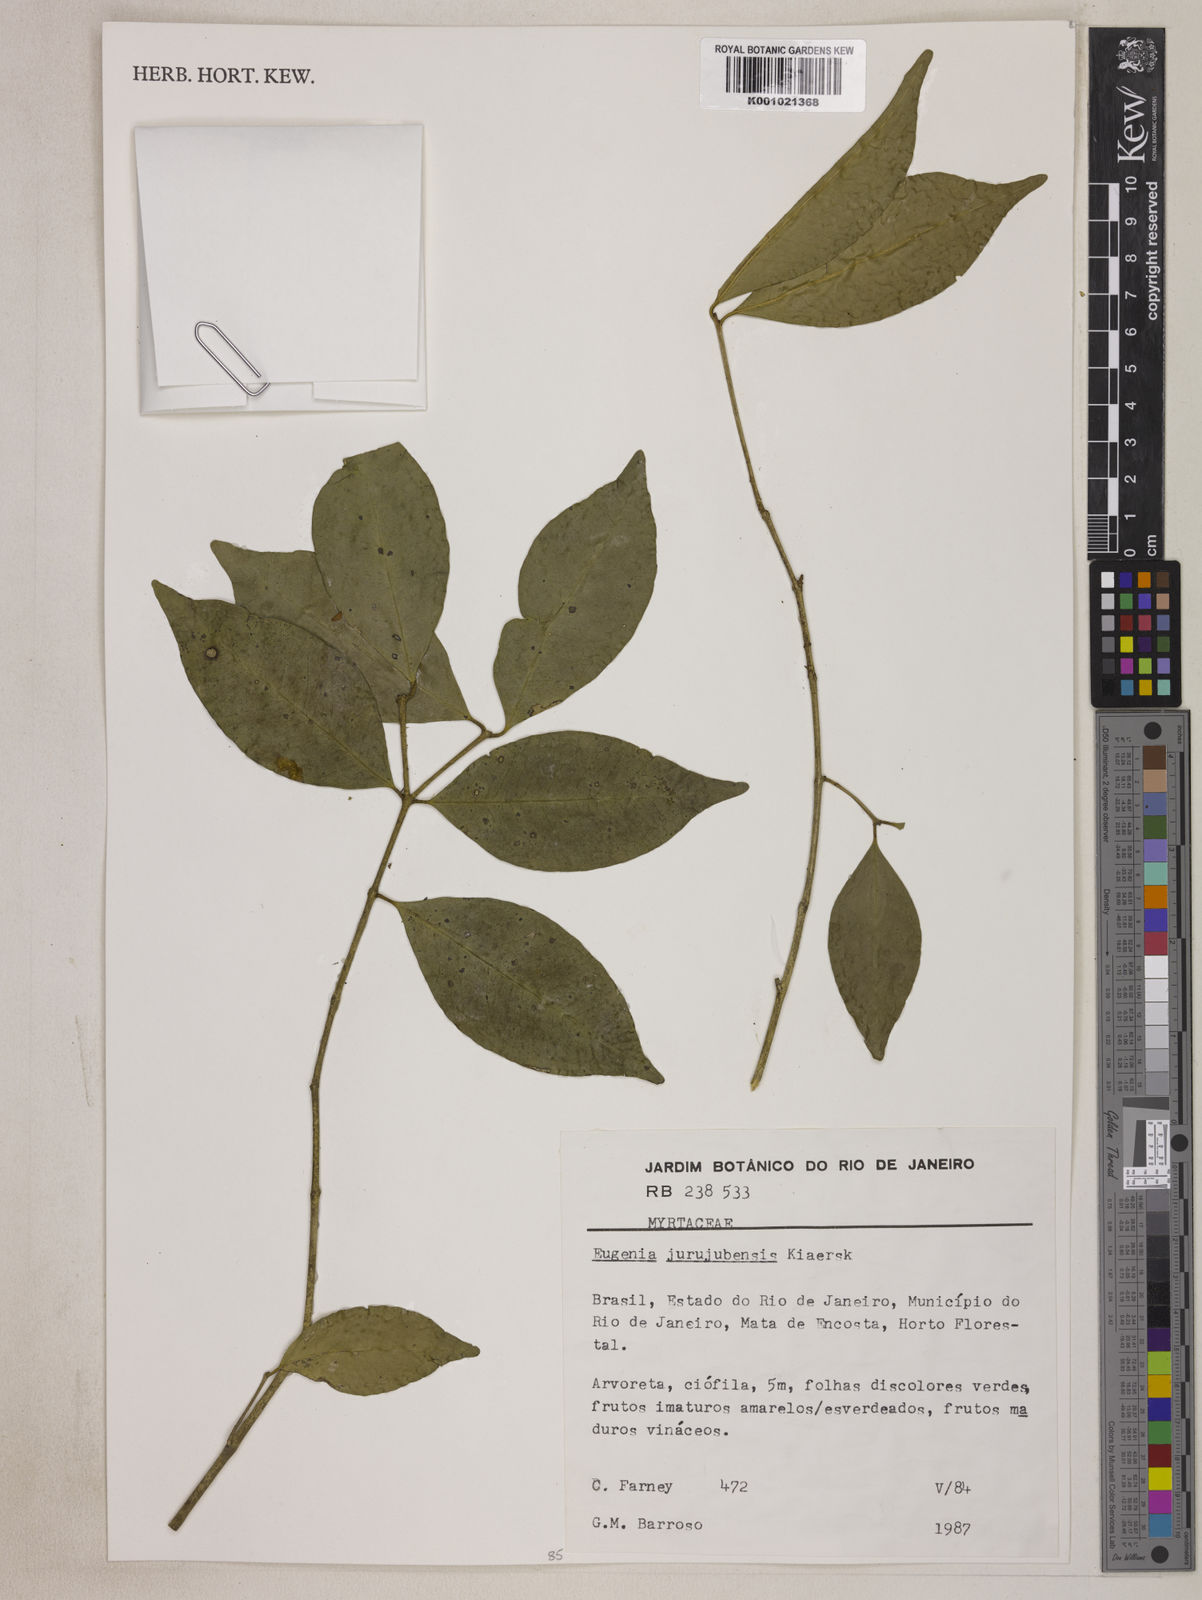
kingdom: Plantae
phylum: Tracheophyta
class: Magnoliopsida
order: Myrtales
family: Myrtaceae
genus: Eugenia
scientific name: Eugenia prasina
